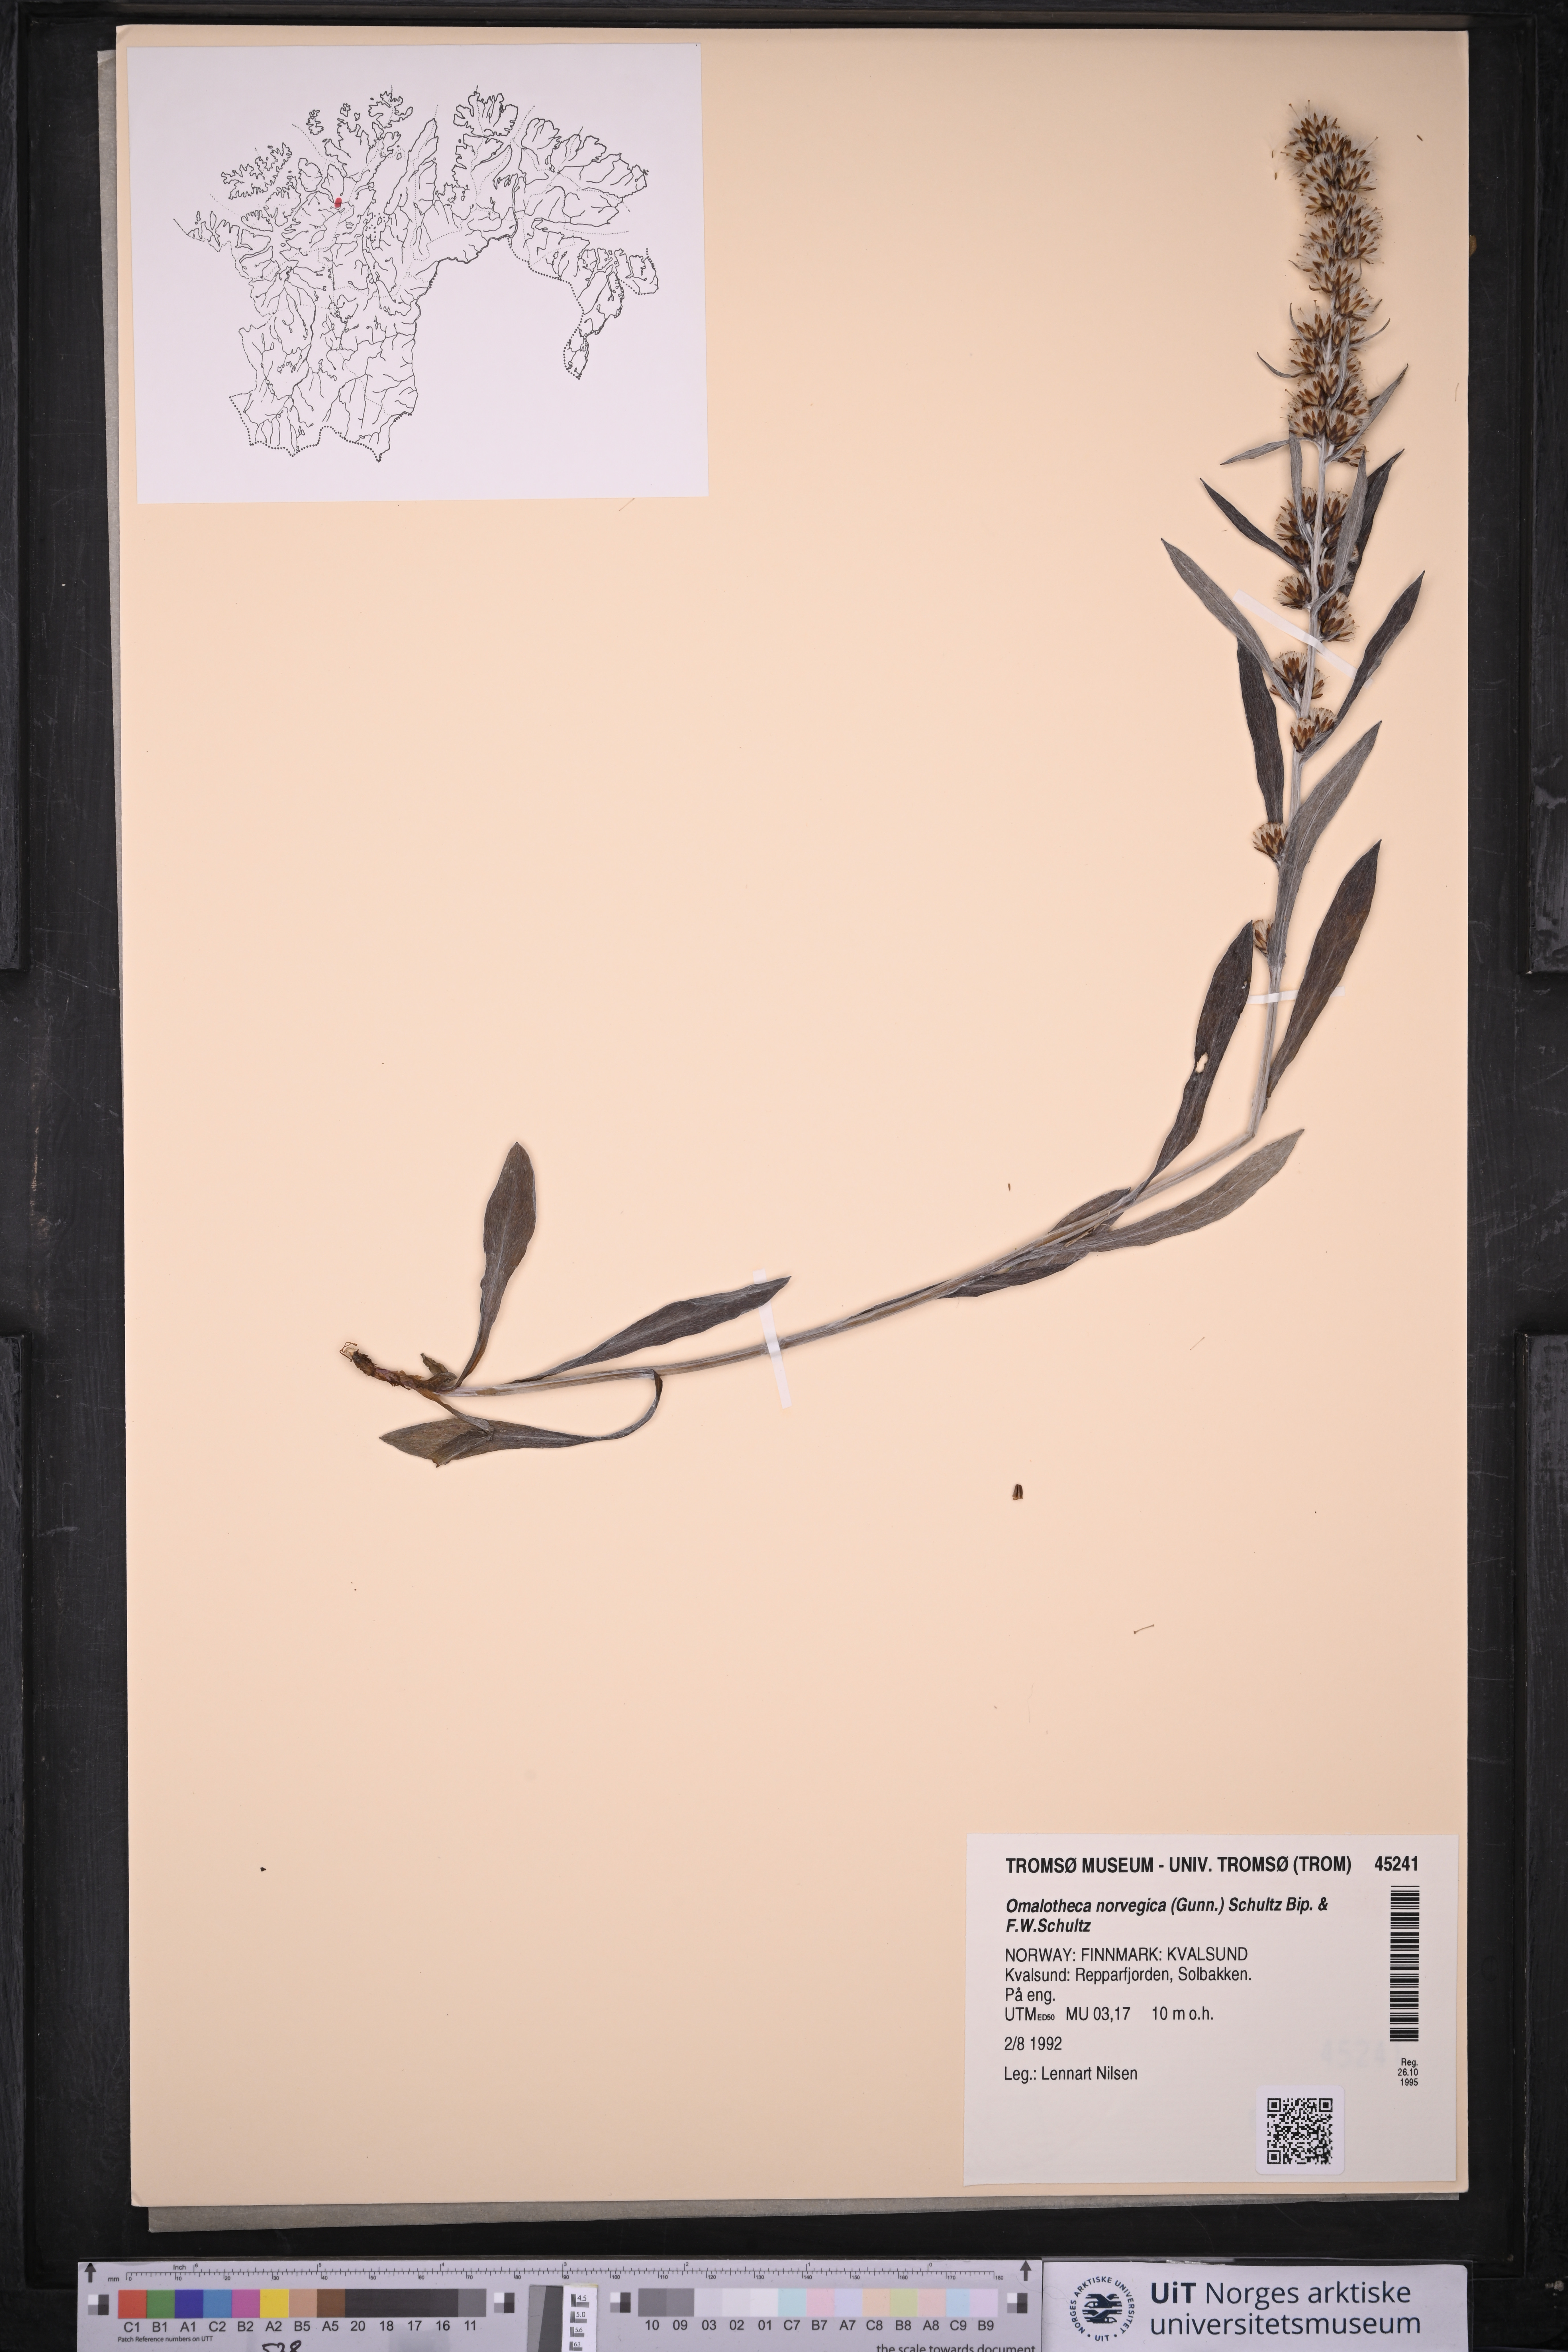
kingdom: Plantae
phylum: Tracheophyta
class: Magnoliopsida
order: Asterales
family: Asteraceae
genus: Omalotheca
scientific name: Omalotheca norvegica
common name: Norwegian arctic-cudweed
